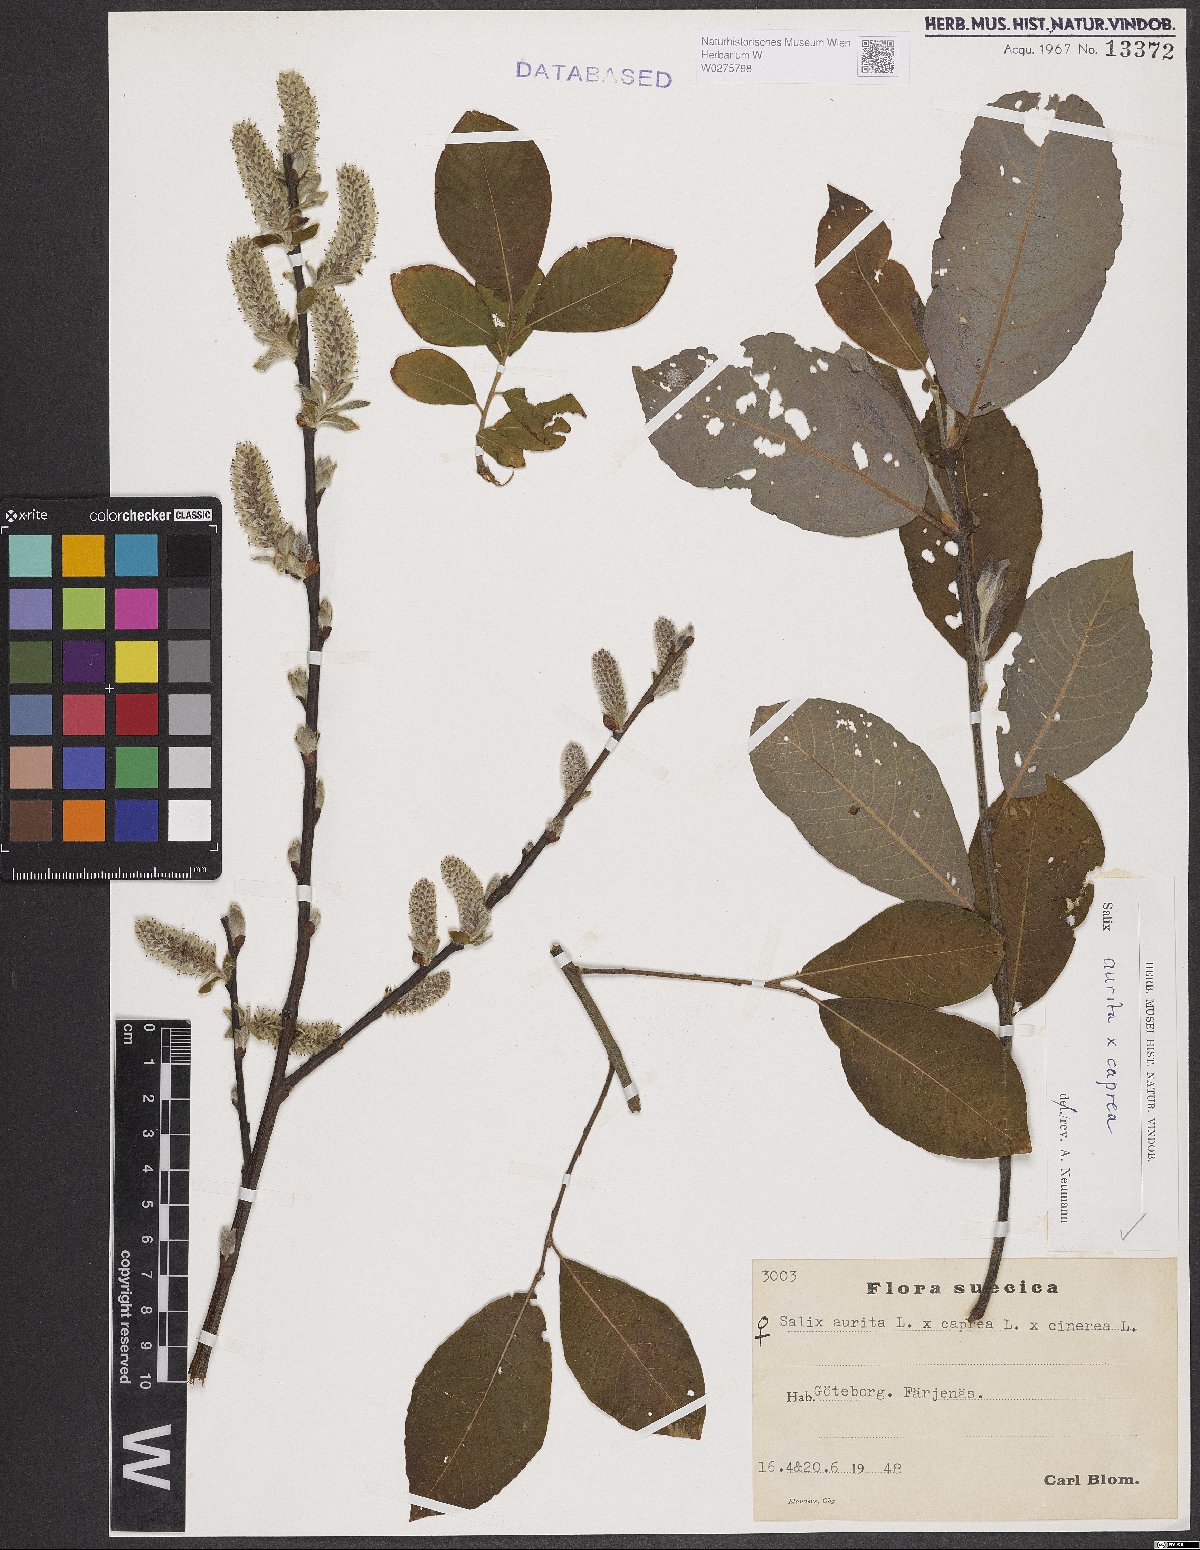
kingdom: Plantae
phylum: Tracheophyta
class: Magnoliopsida
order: Malpighiales
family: Salicaceae
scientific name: Salicaceae
